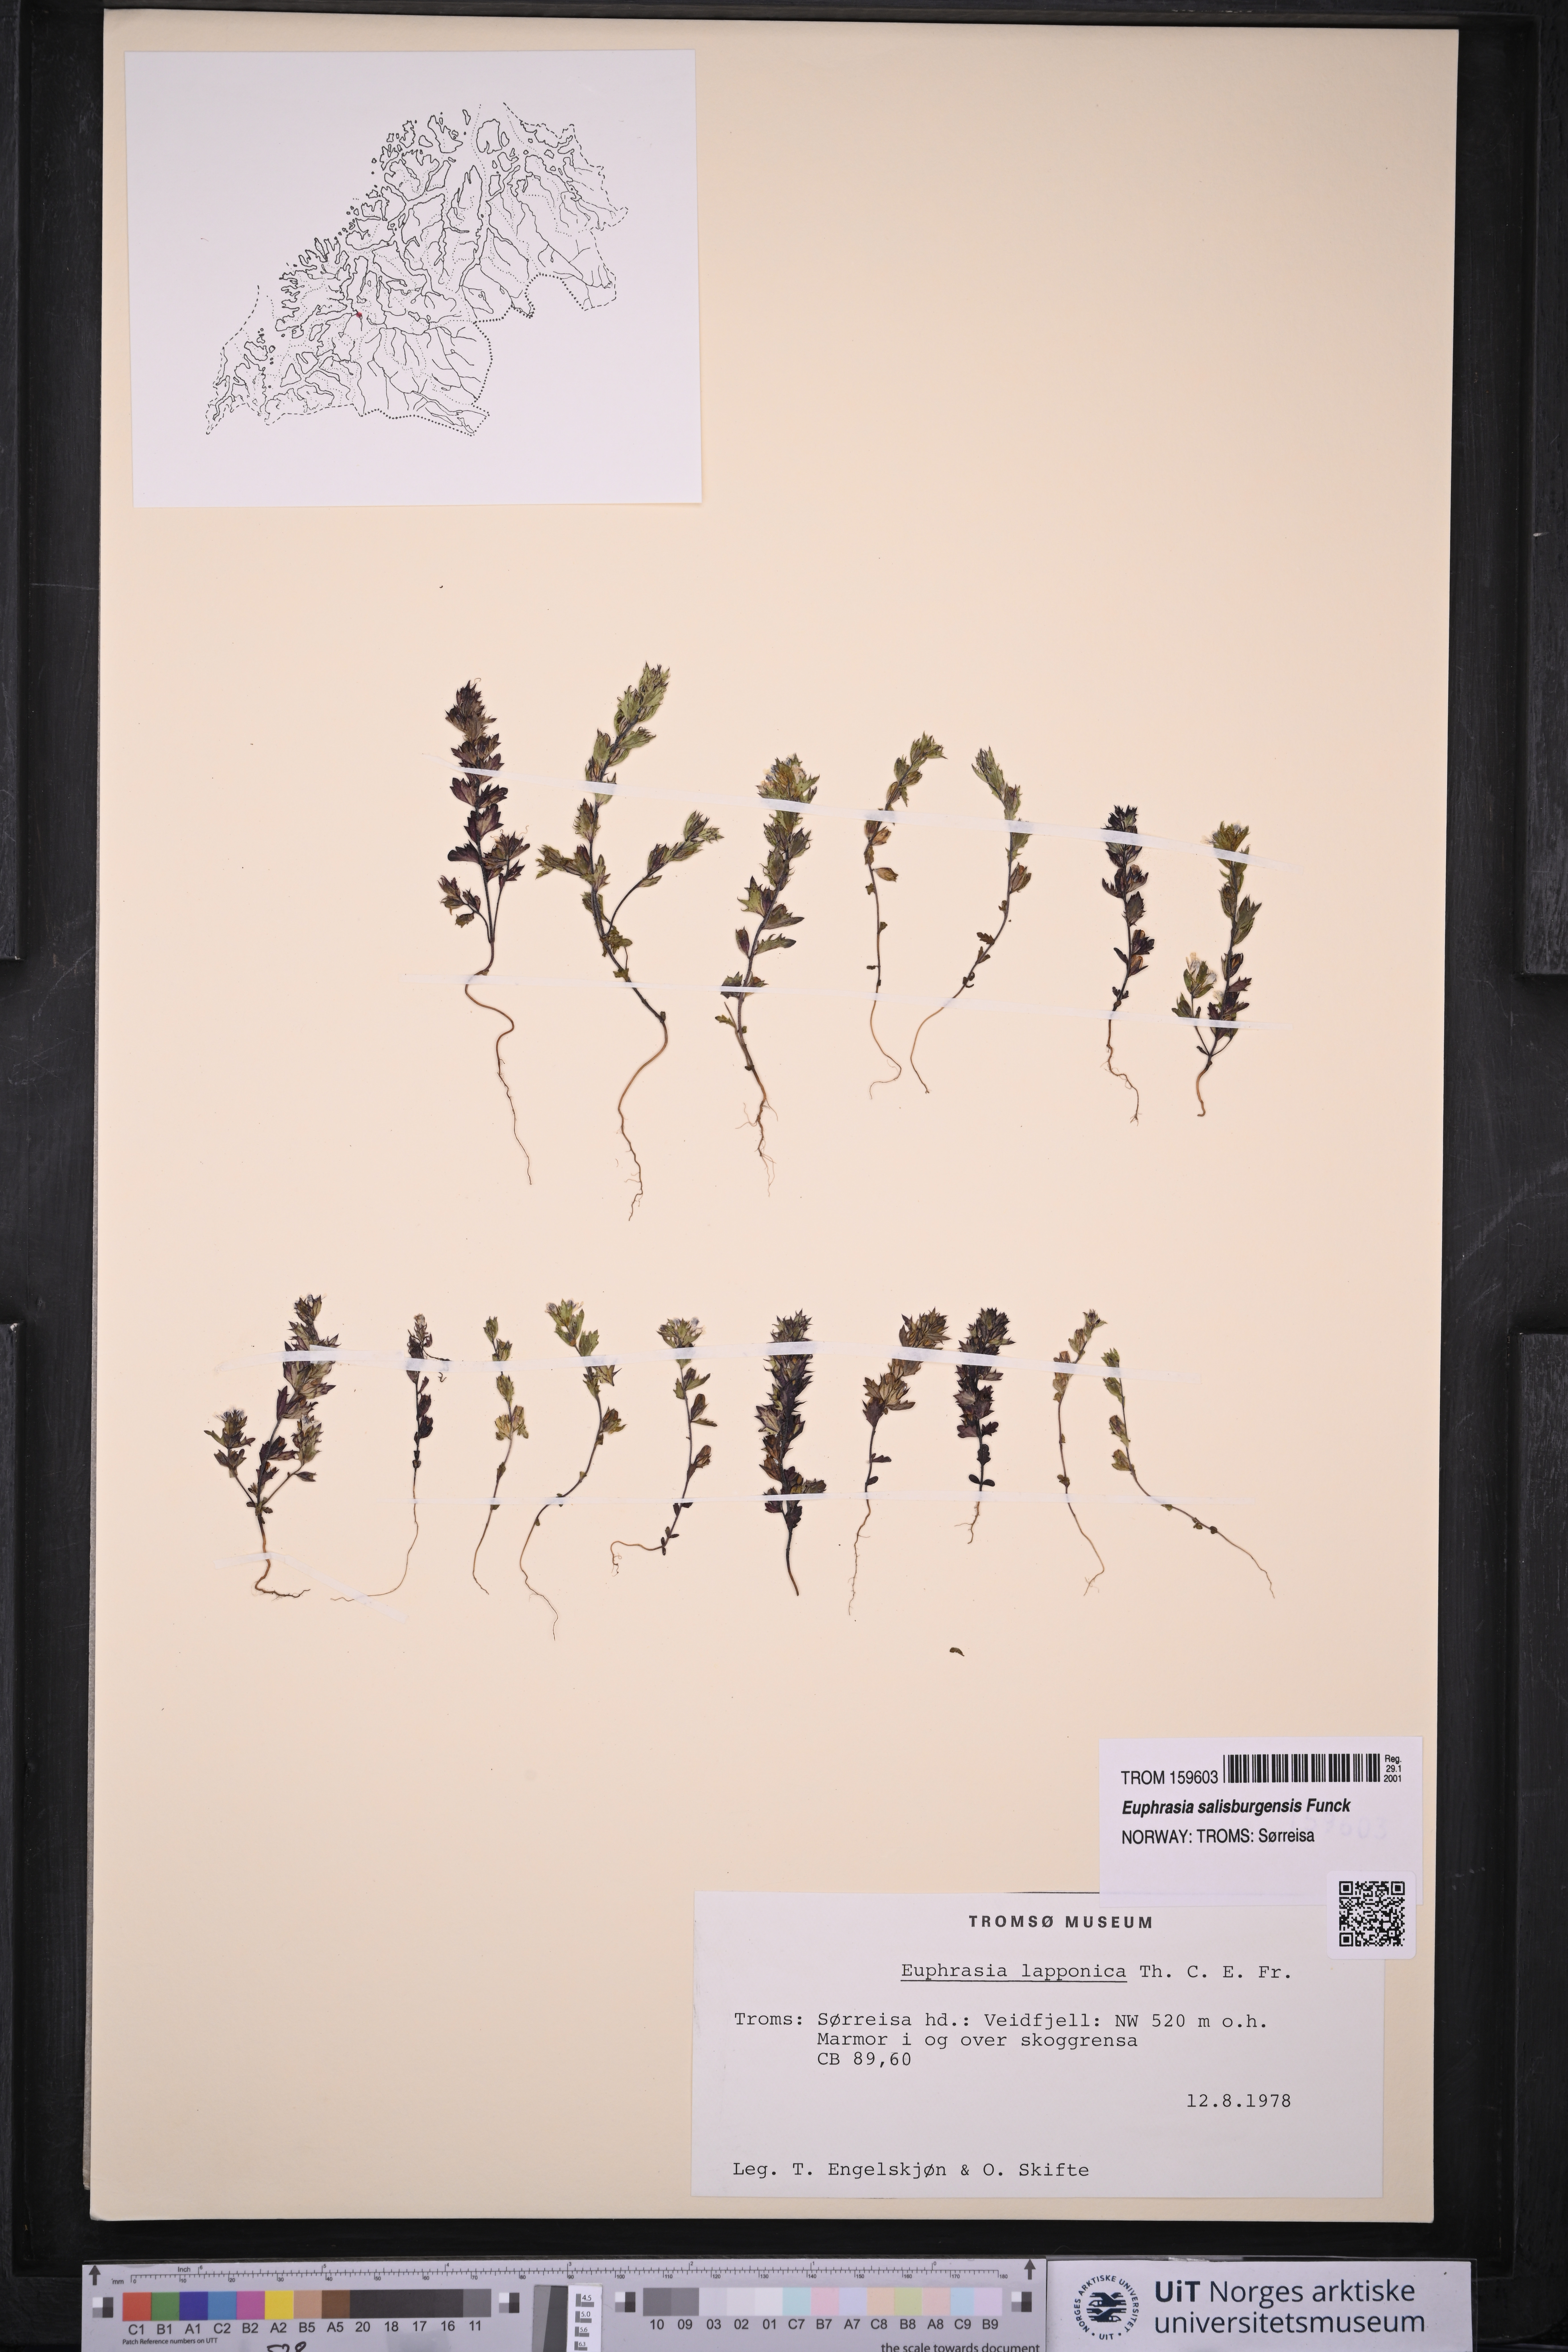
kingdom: Plantae
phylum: Tracheophyta
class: Magnoliopsida
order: Lamiales
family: Orobanchaceae
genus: Euphrasia
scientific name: Euphrasia salisburgensis
